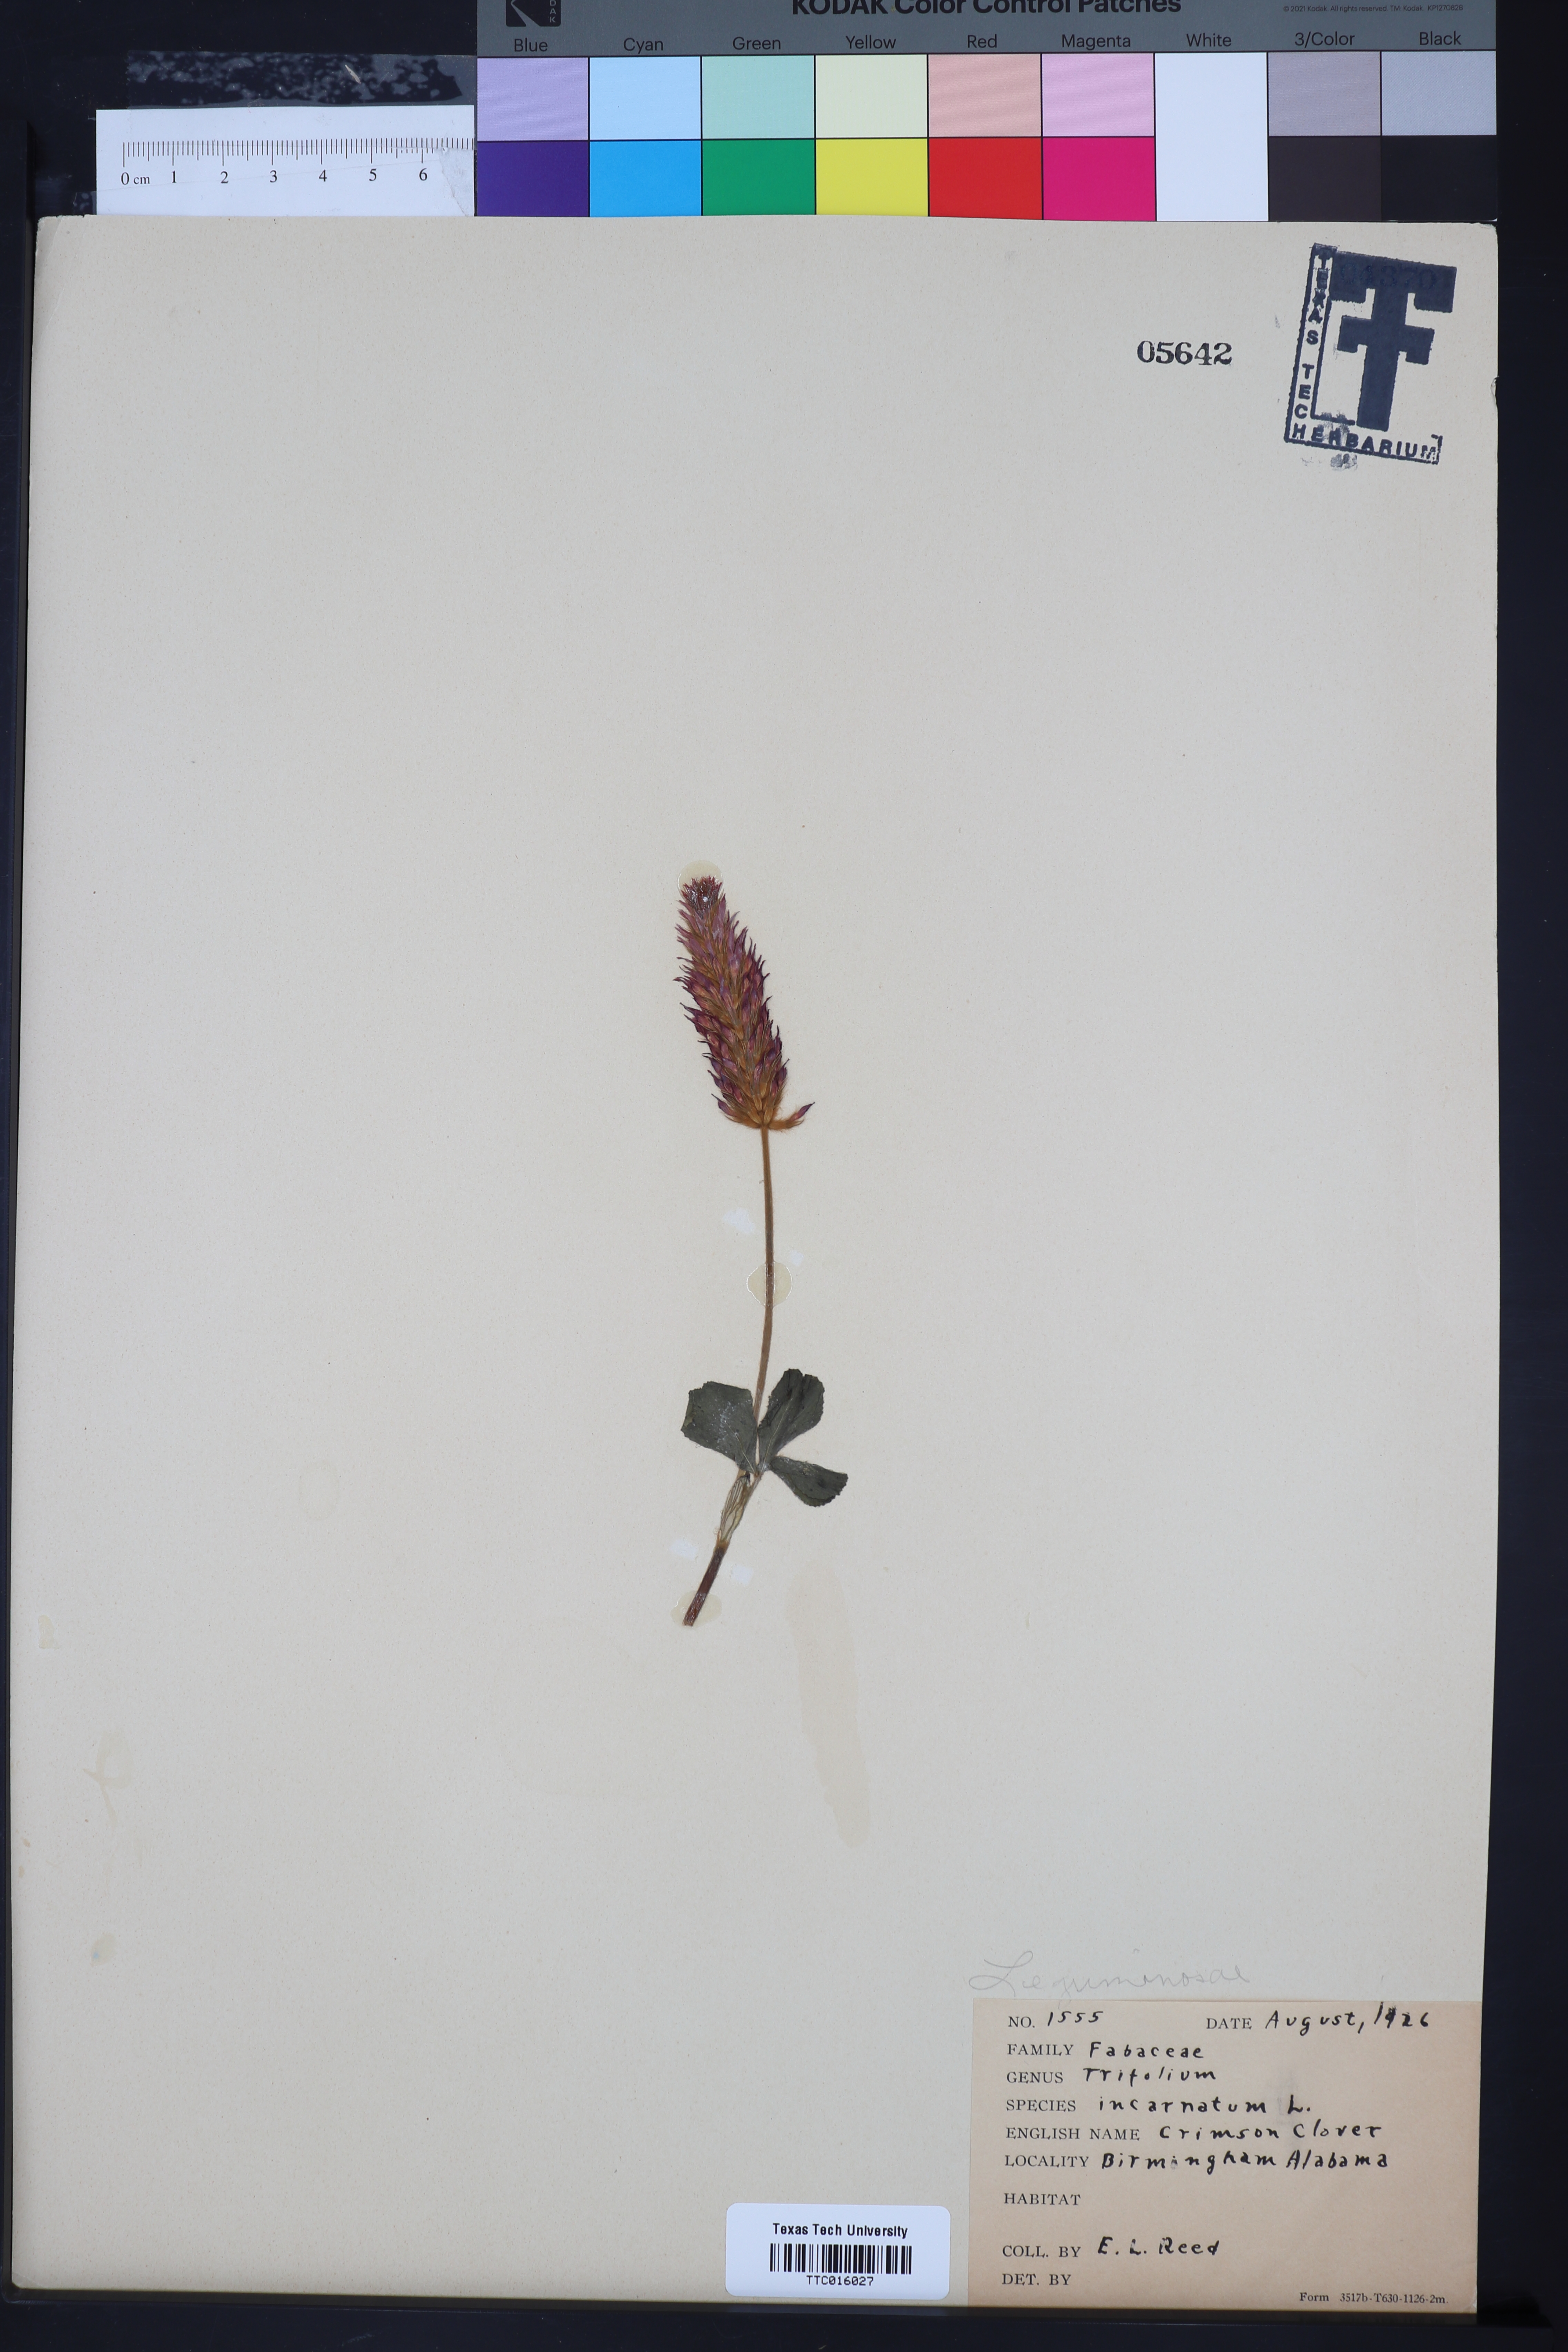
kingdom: Plantae
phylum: Tracheophyta
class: Magnoliopsida
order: Fabales
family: Fabaceae
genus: Trifolium
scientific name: Trifolium incarnatum
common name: Crimson clover
